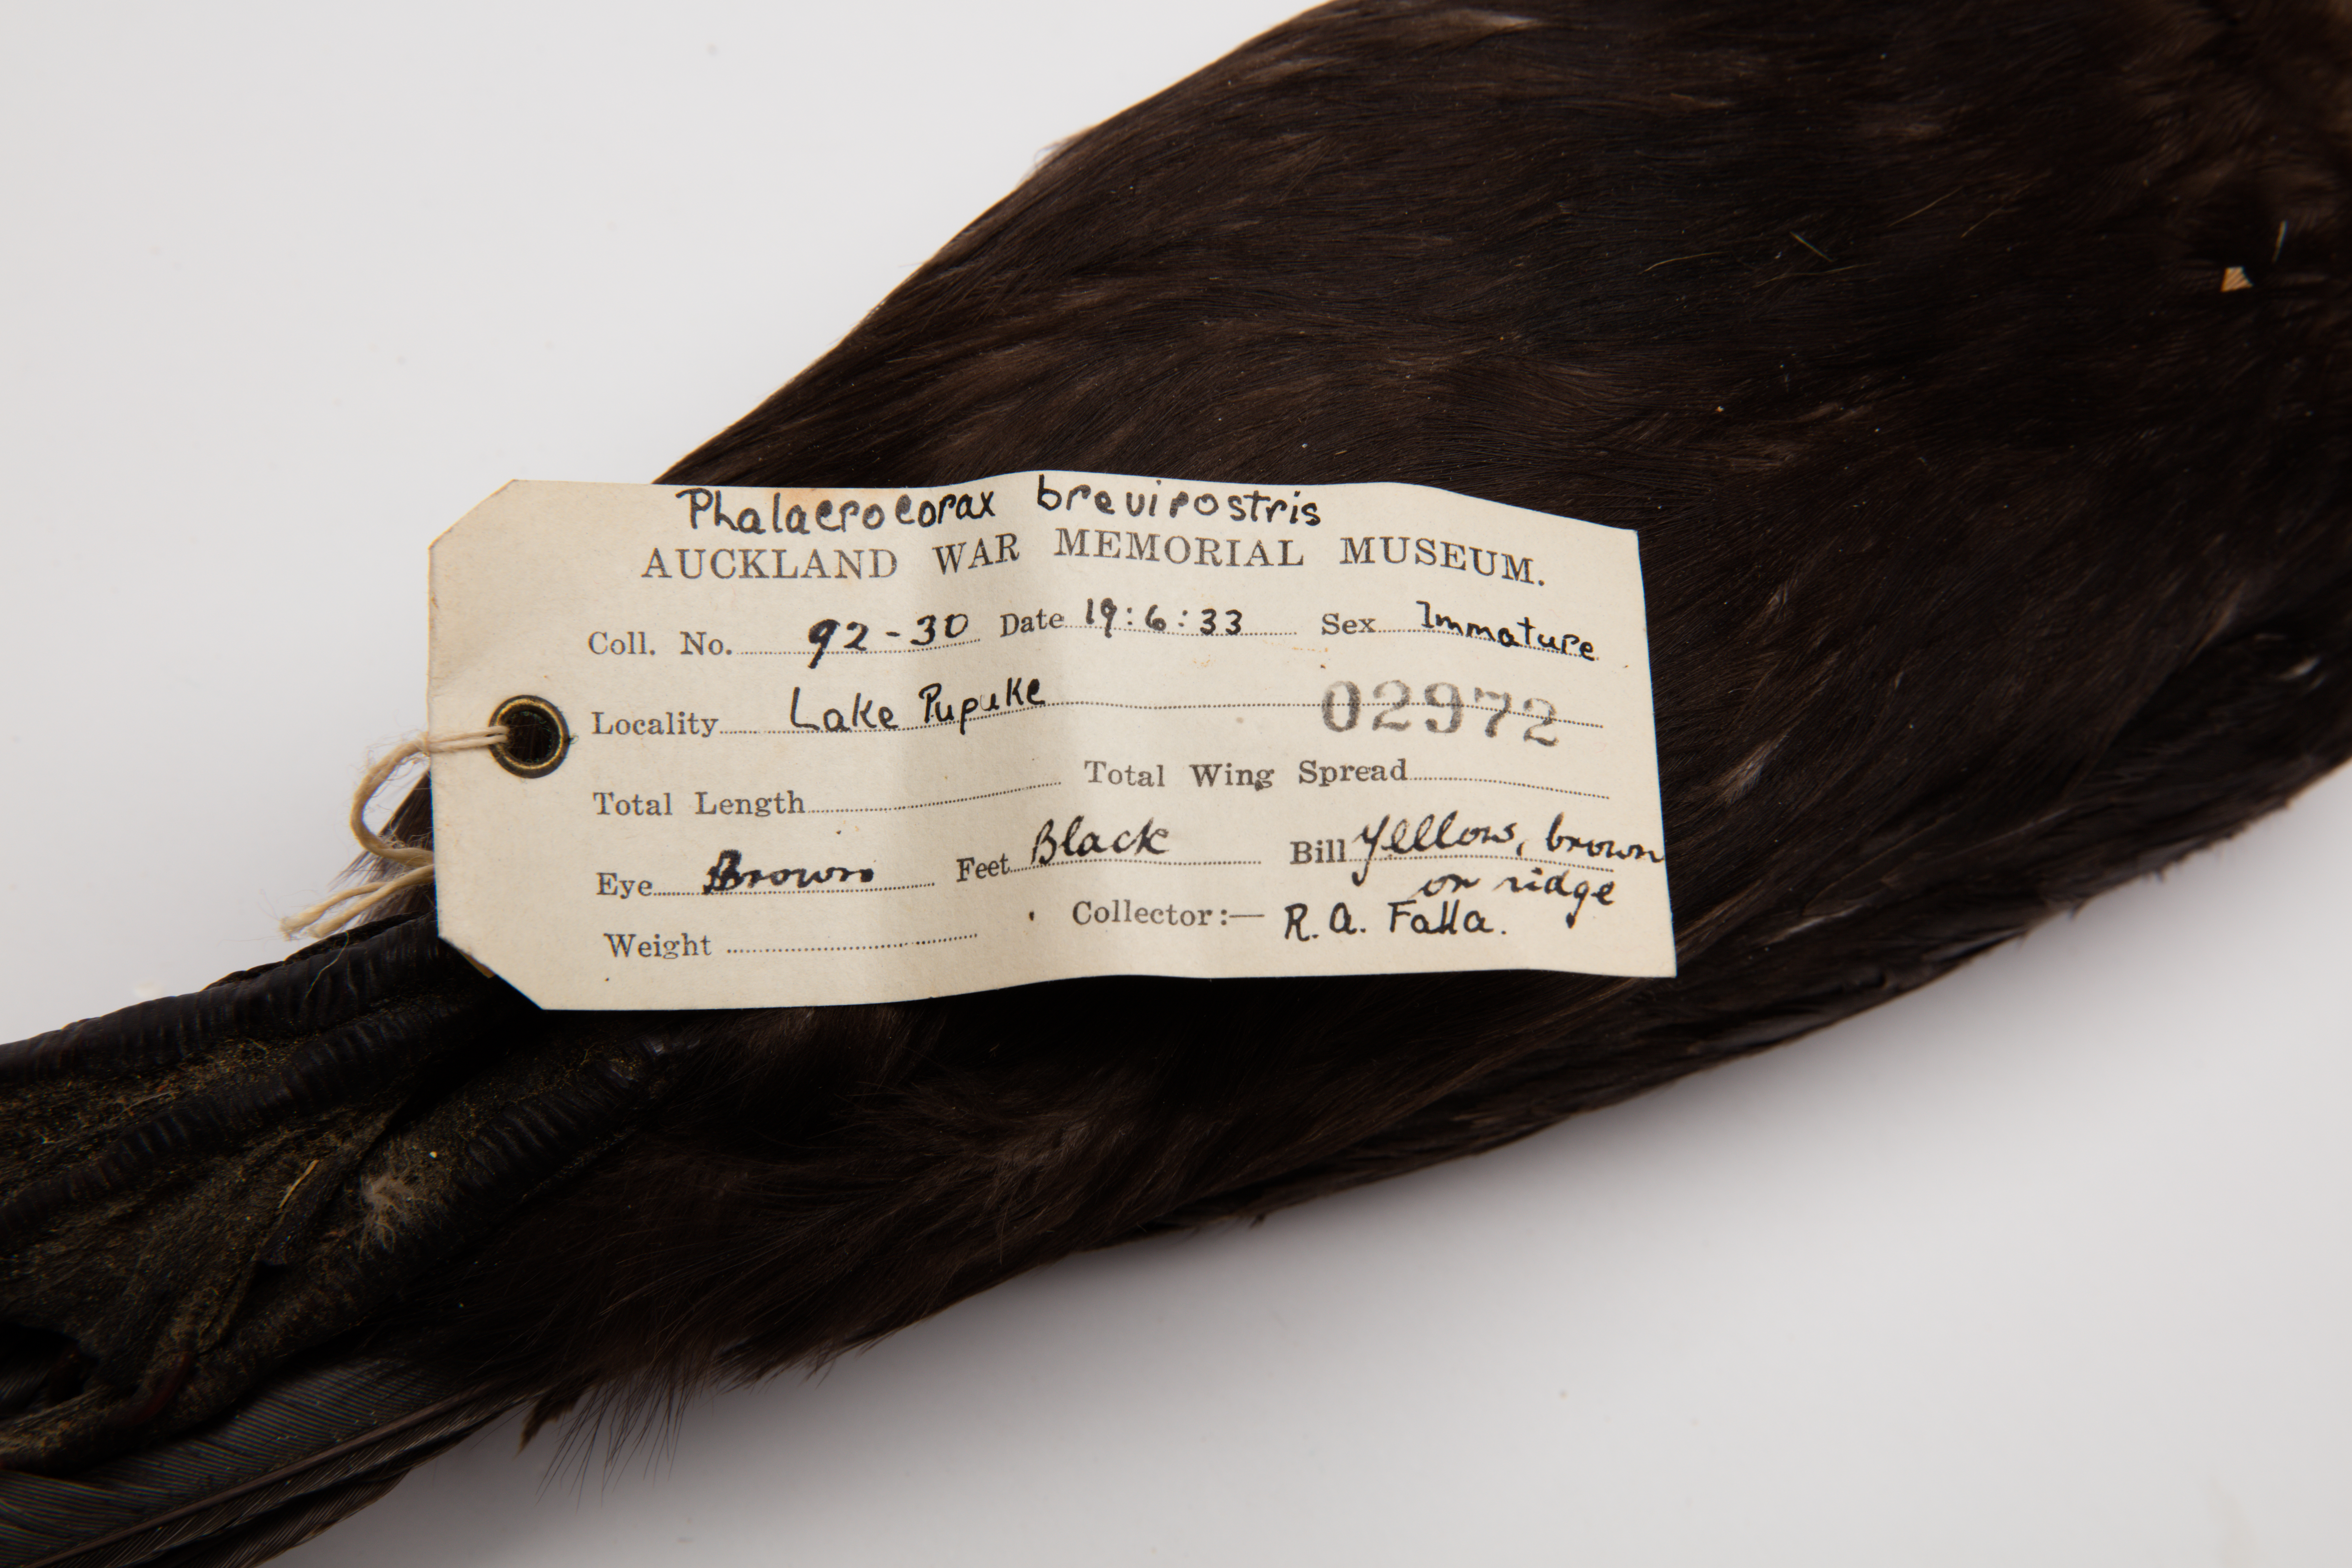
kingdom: Animalia
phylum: Chordata
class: Aves
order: Suliformes
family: Phalacrocoracidae
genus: Microcarbo
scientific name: Microcarbo melanoleucos
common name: Little pied cormorant
